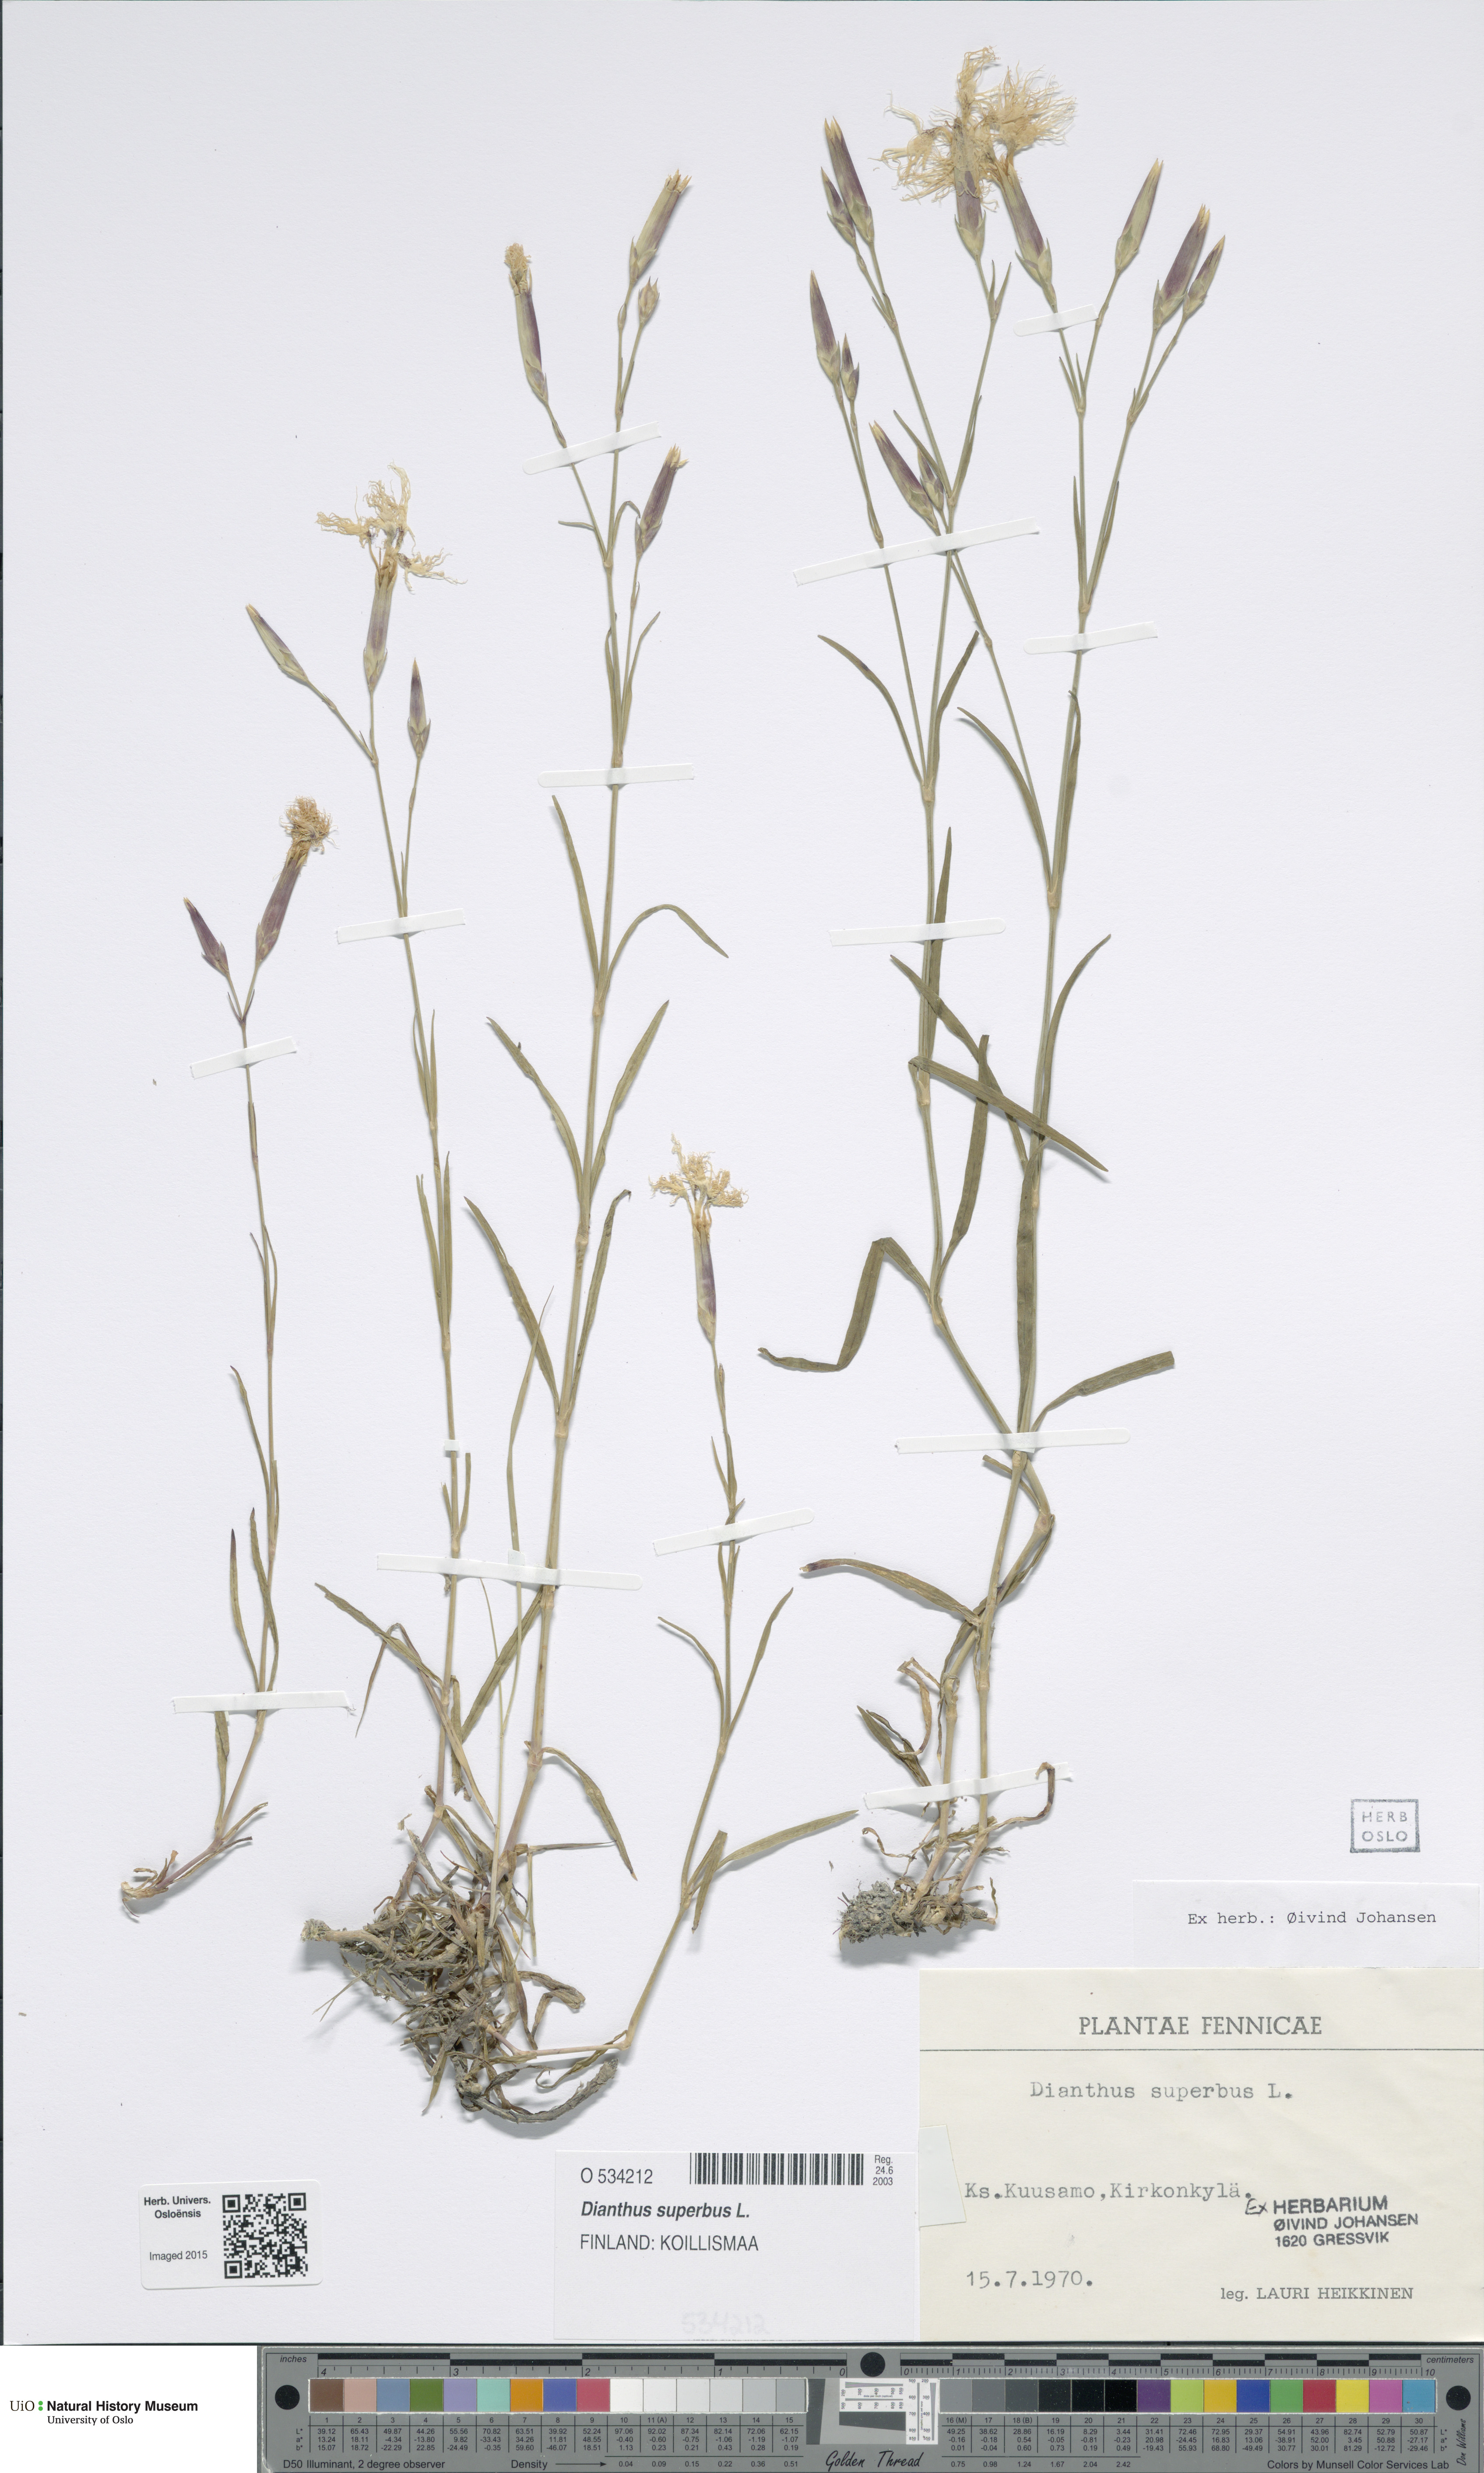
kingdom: Plantae
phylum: Tracheophyta
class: Magnoliopsida
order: Caryophyllales
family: Caryophyllaceae
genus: Dianthus
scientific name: Dianthus superbus
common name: Fringed pink
